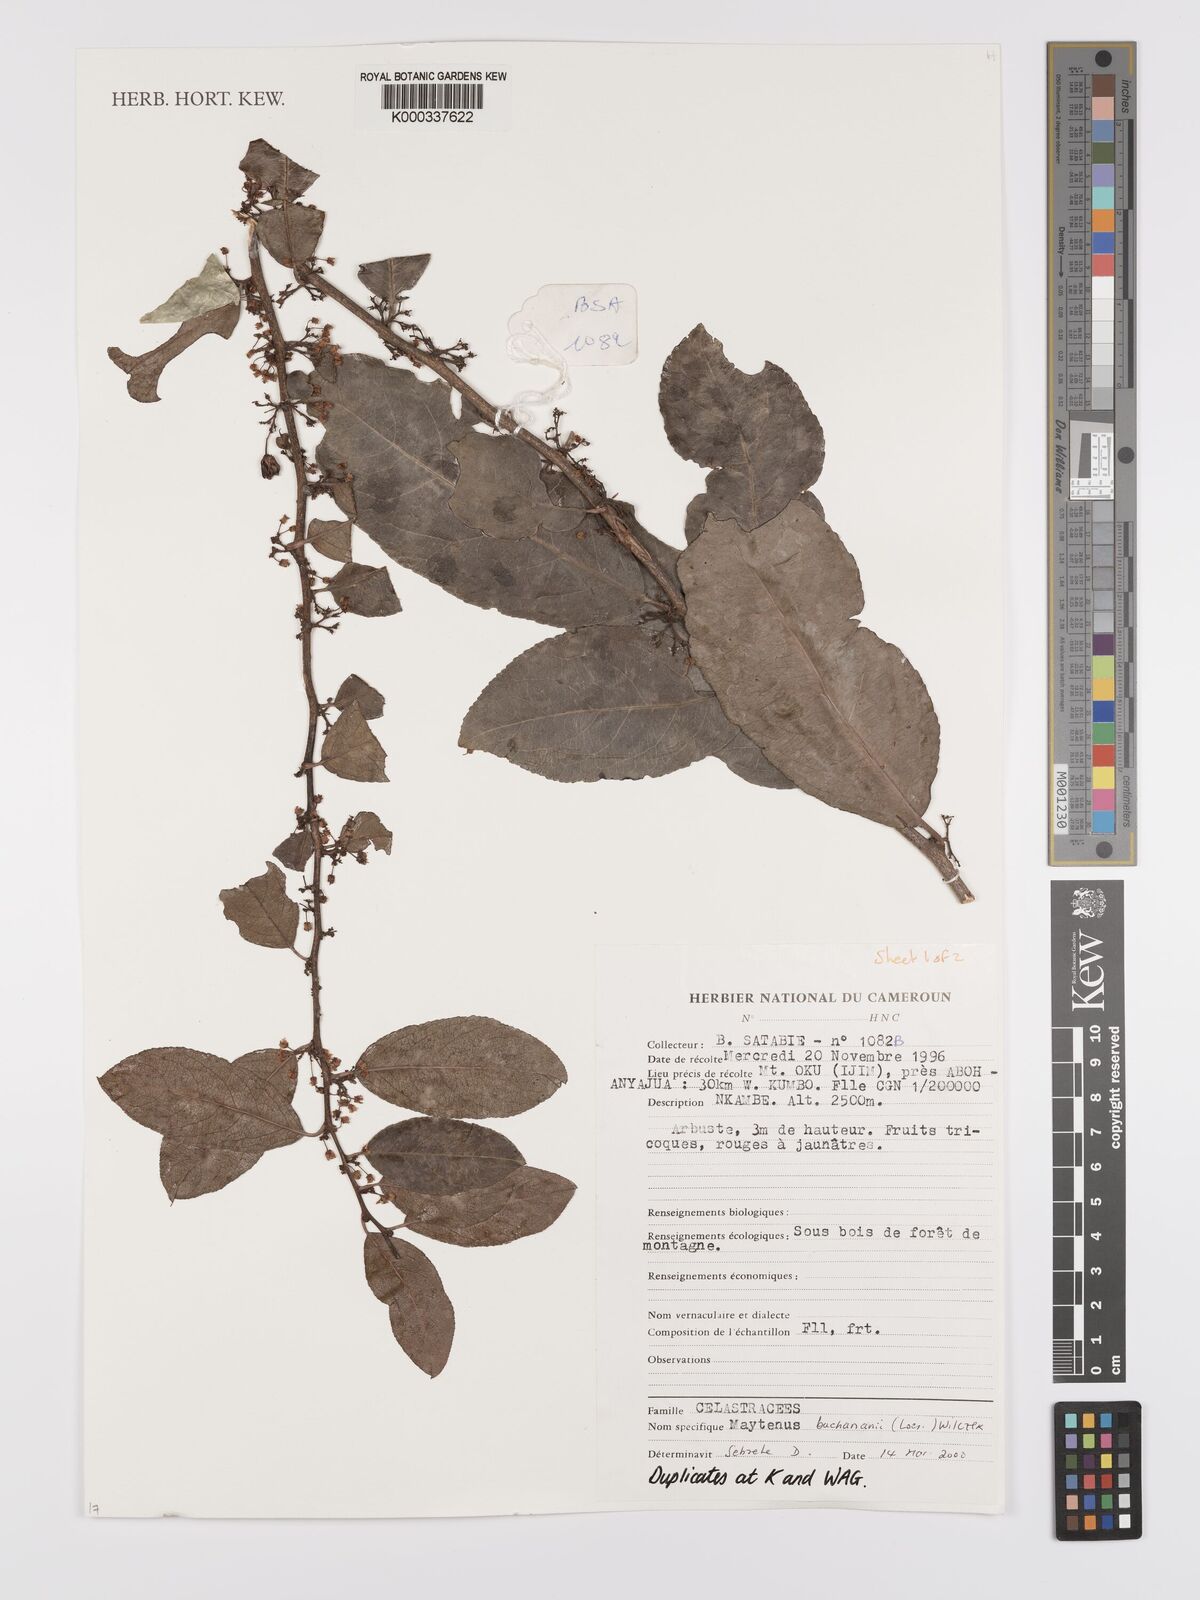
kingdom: Plantae
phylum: Tracheophyta
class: Magnoliopsida
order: Celastrales
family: Celastraceae
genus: Gymnosporia
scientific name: Gymnosporia buchananii
